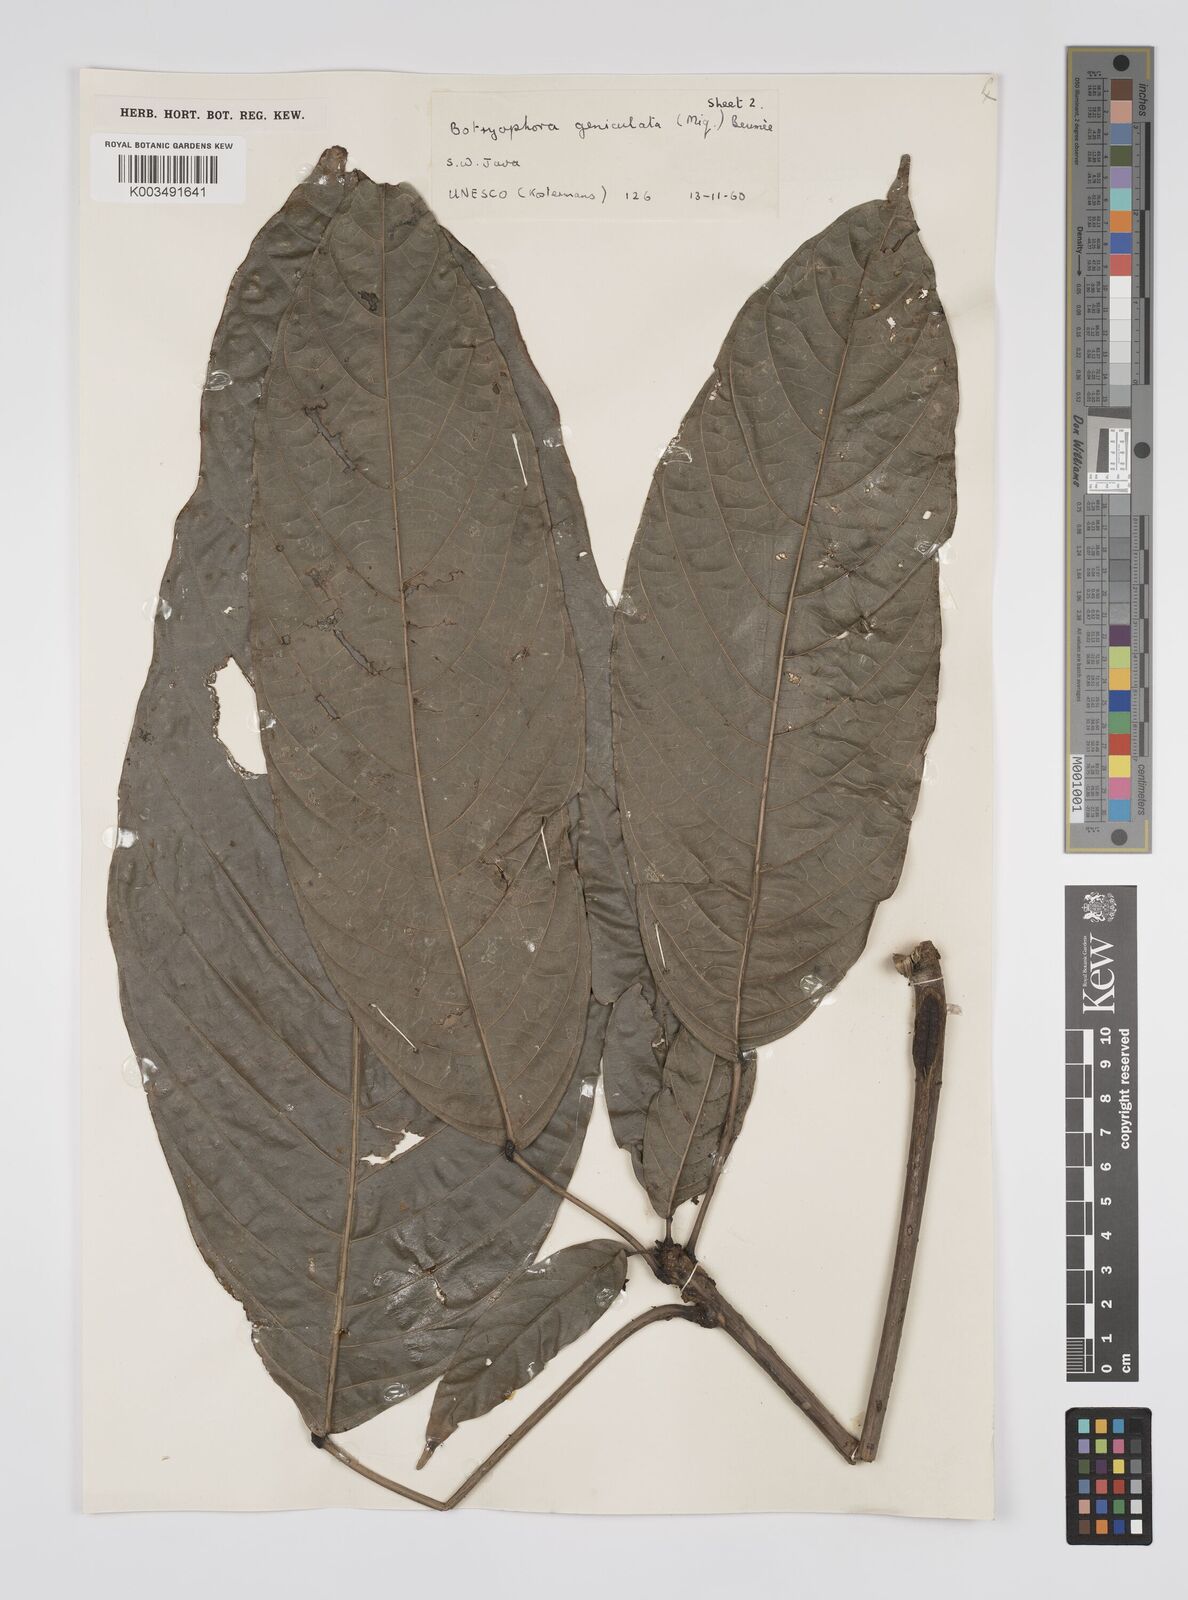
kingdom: Plantae
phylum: Tracheophyta
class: Magnoliopsida
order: Malpighiales
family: Euphorbiaceae
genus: Botryophora
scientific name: Botryophora geniculata
